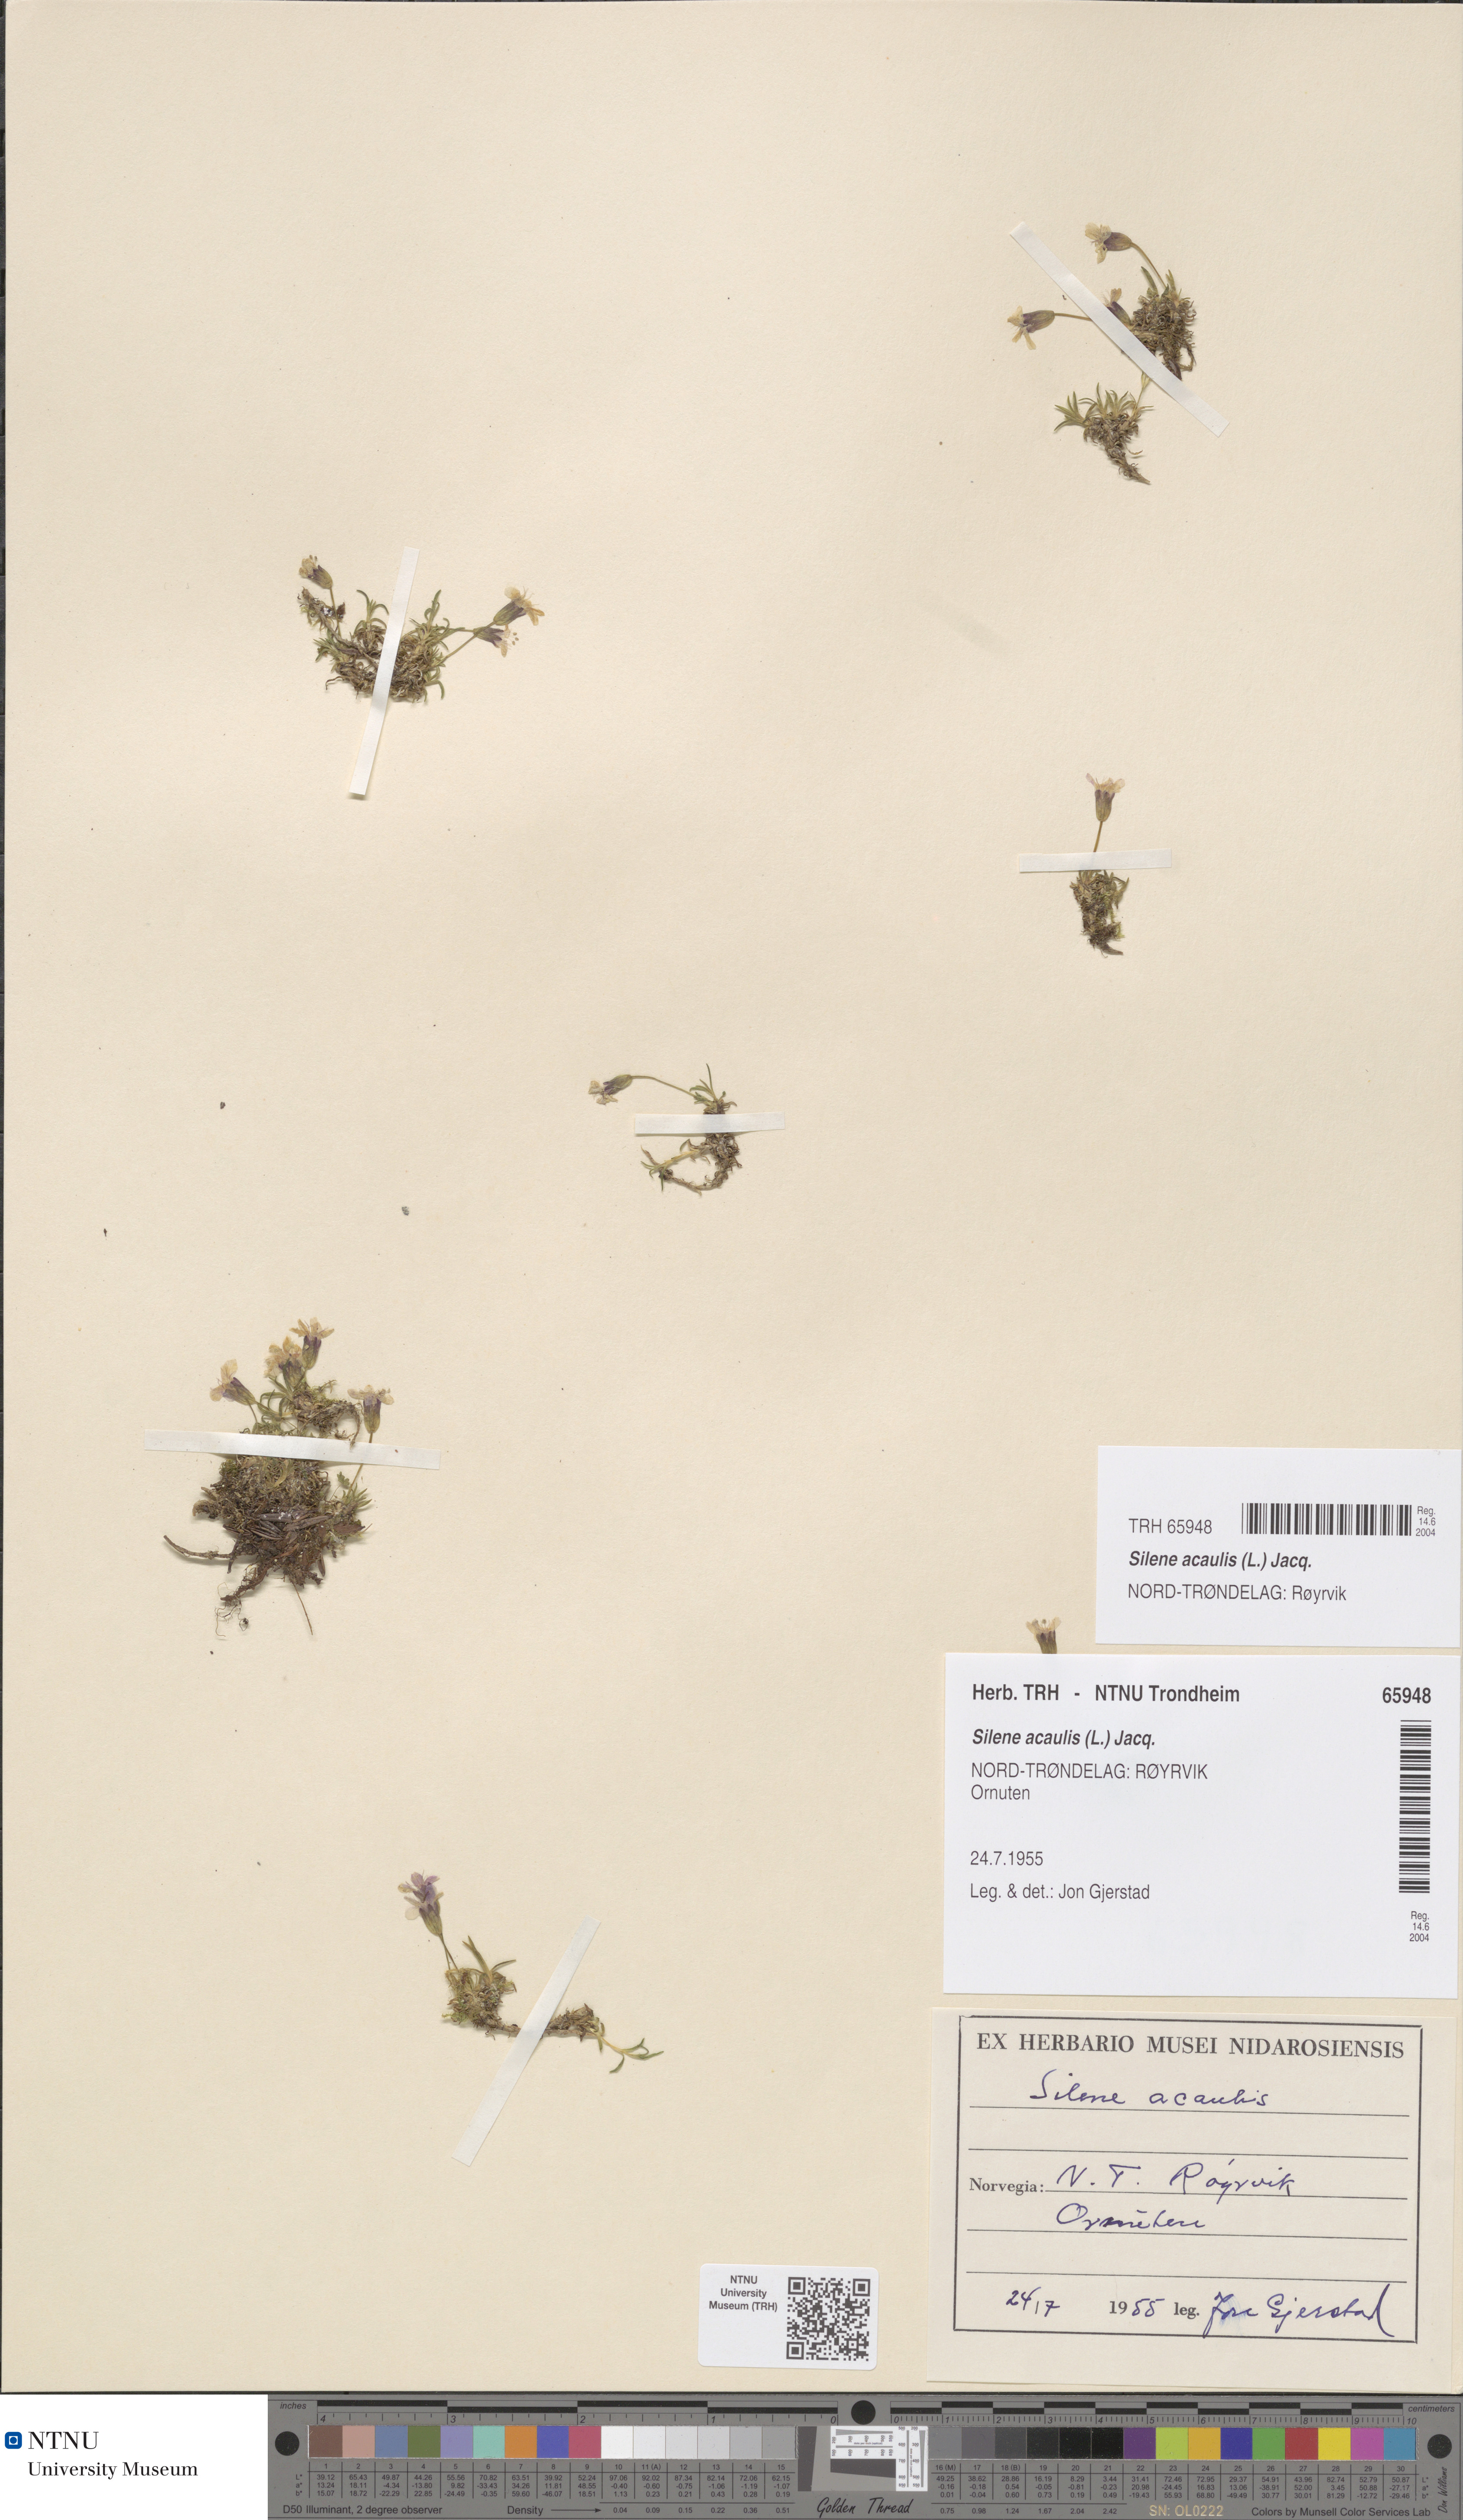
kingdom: Plantae
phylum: Tracheophyta
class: Magnoliopsida
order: Caryophyllales
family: Caryophyllaceae
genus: Silene
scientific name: Silene acaulis
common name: Moss campion
